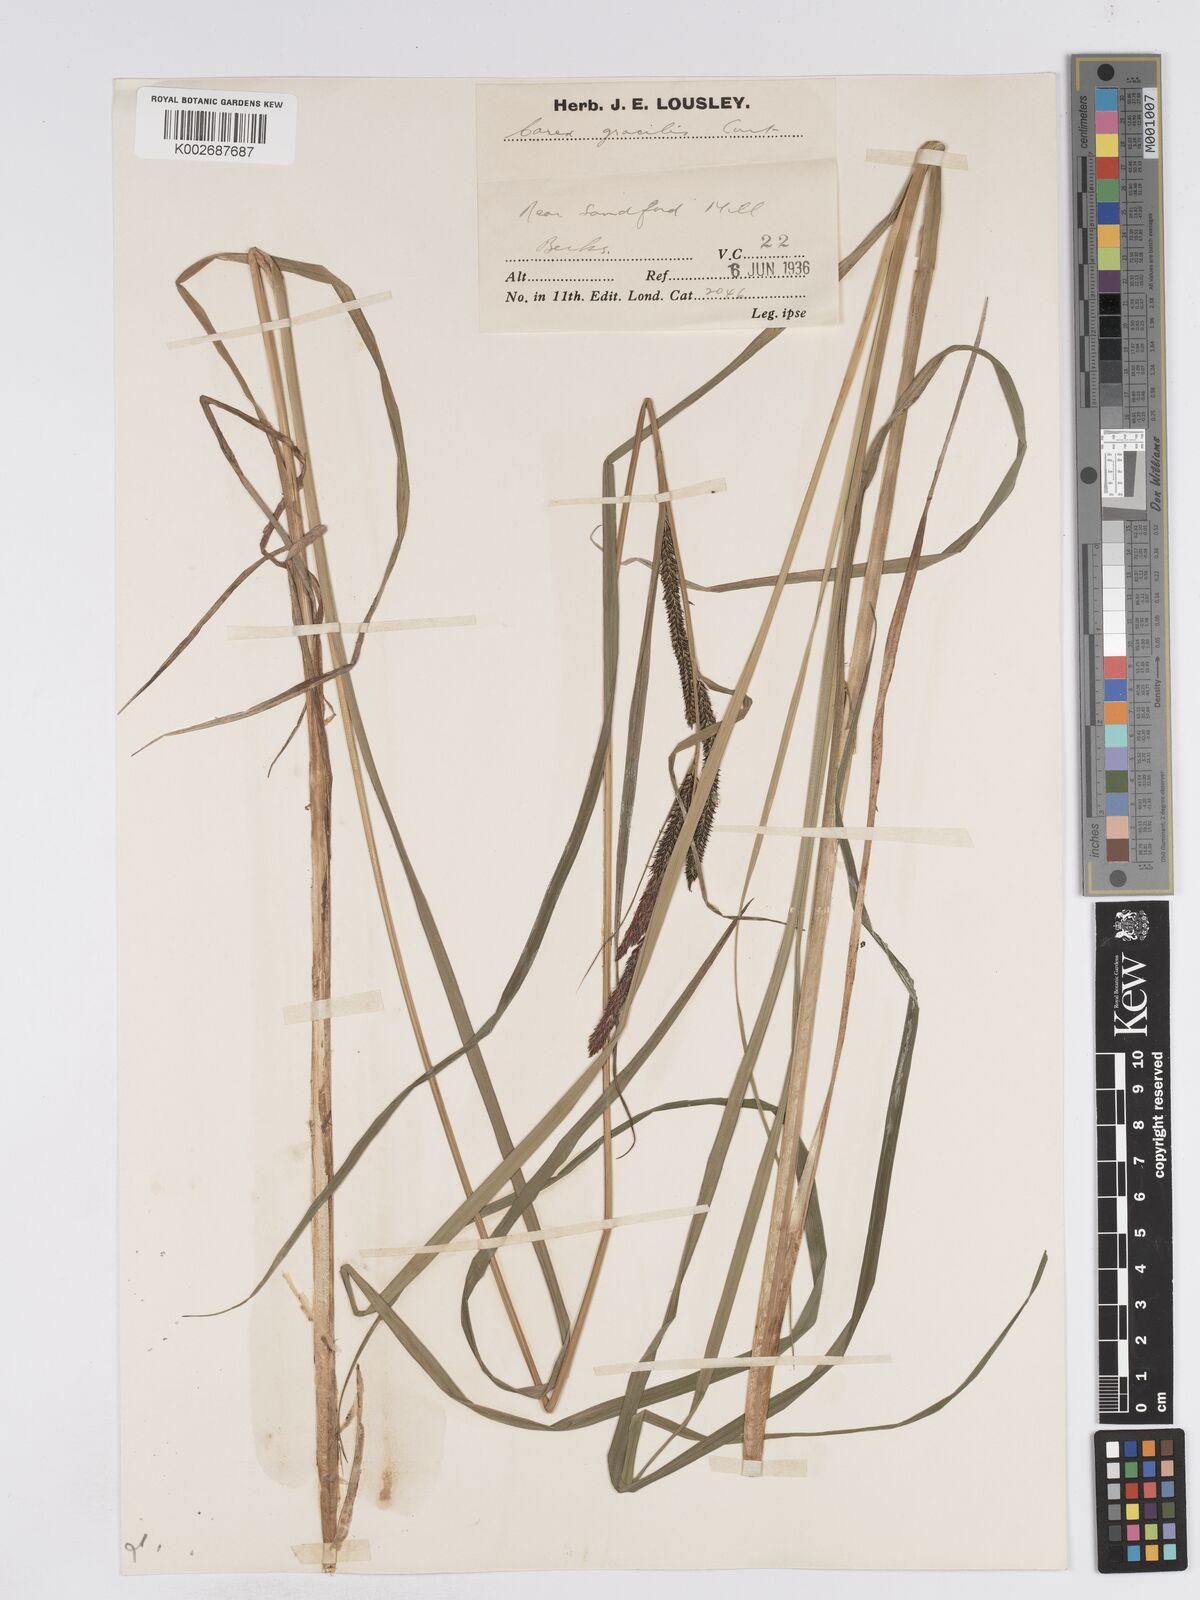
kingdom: Plantae
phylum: Tracheophyta
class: Liliopsida
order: Poales
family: Cyperaceae
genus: Carex
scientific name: Carex acuta
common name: Slender tufted-sedge
